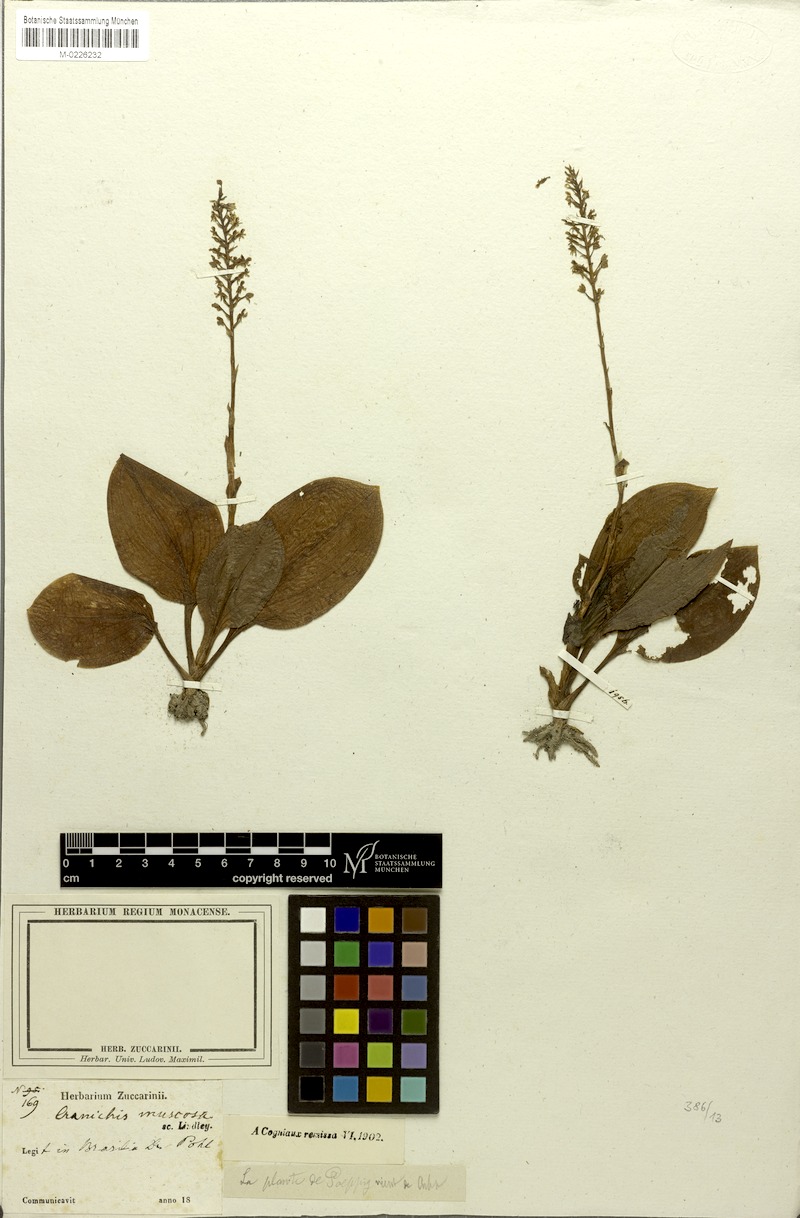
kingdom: Plantae
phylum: Tracheophyta
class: Liliopsida
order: Asparagales
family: Orchidaceae
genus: Cranichis
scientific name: Cranichis muscosa
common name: Cypress-knee helmet orchid
